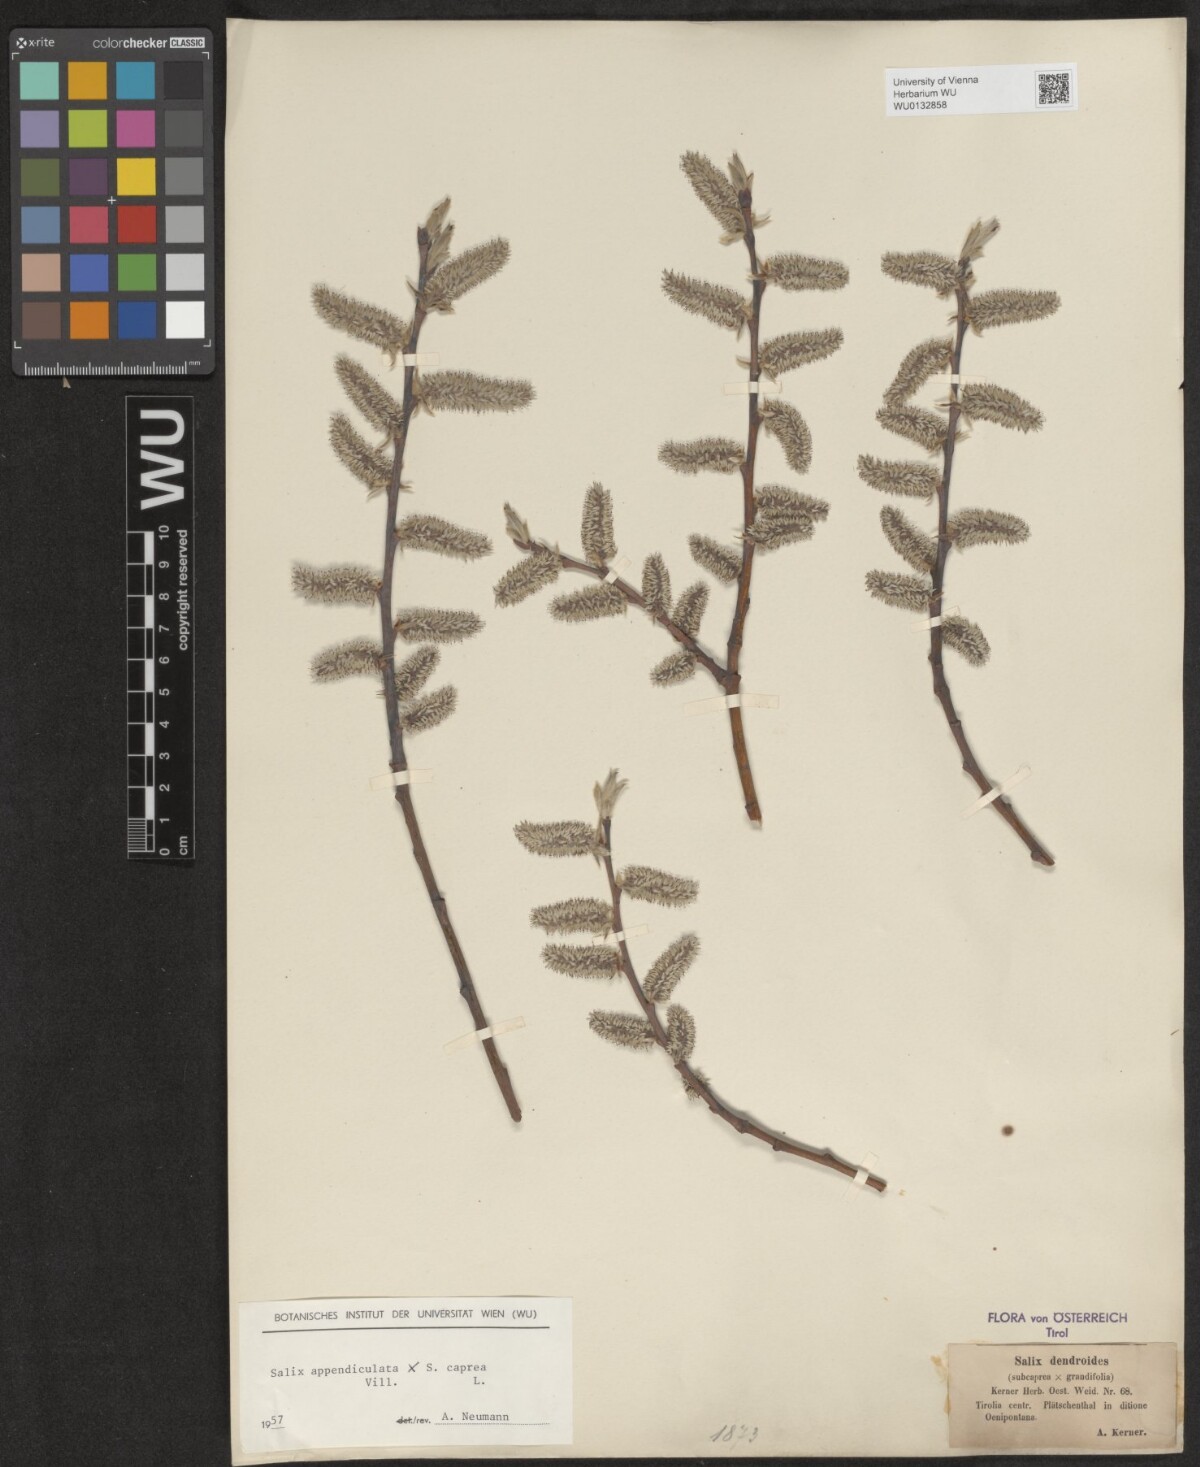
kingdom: Plantae
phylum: Tracheophyta
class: Magnoliopsida
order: Malpighiales
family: Salicaceae
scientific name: Salicaceae
